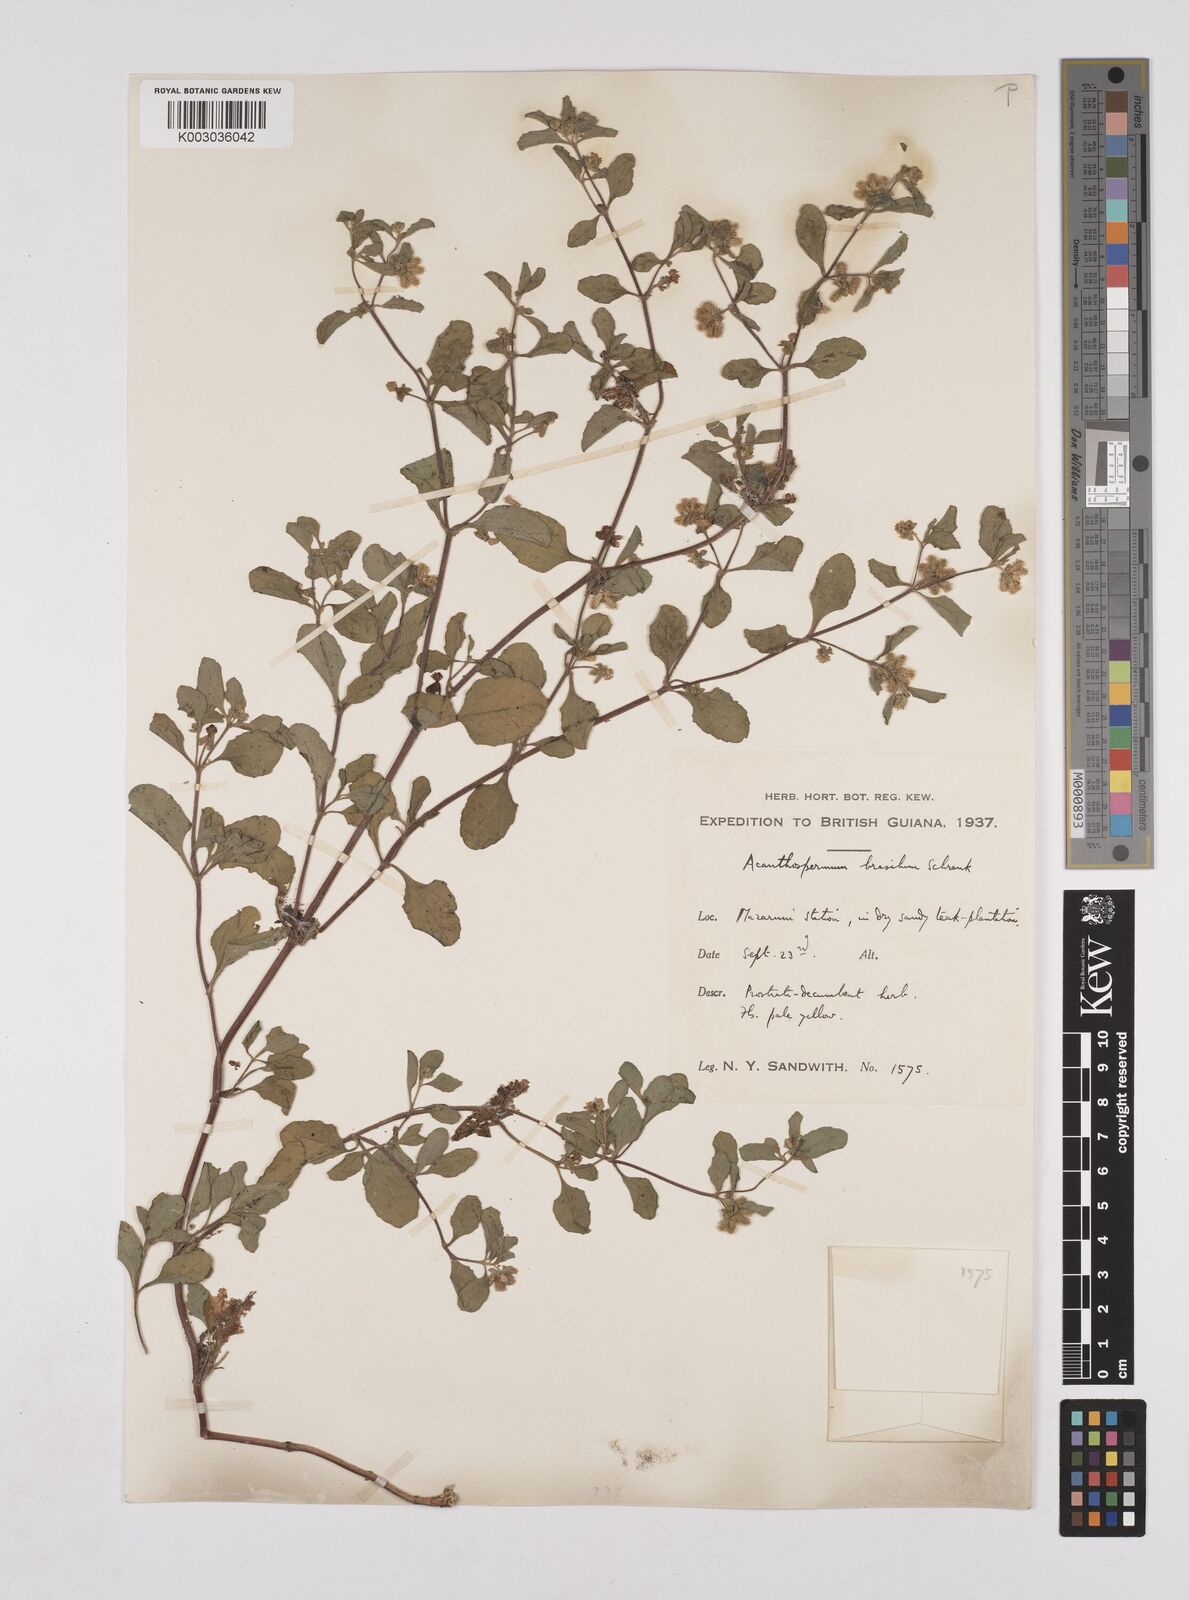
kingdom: Plantae
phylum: Tracheophyta
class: Magnoliopsida
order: Asterales
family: Asteraceae
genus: Acanthospermum
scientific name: Acanthospermum australe
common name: Paraguayan starbur
